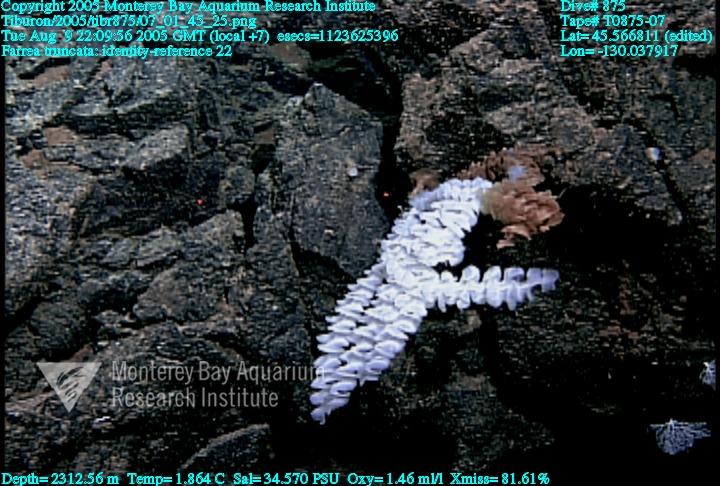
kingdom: Animalia
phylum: Porifera
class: Hexactinellida
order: Sceptrulophora
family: Farreidae
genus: Farrea
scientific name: Farrea truncata
